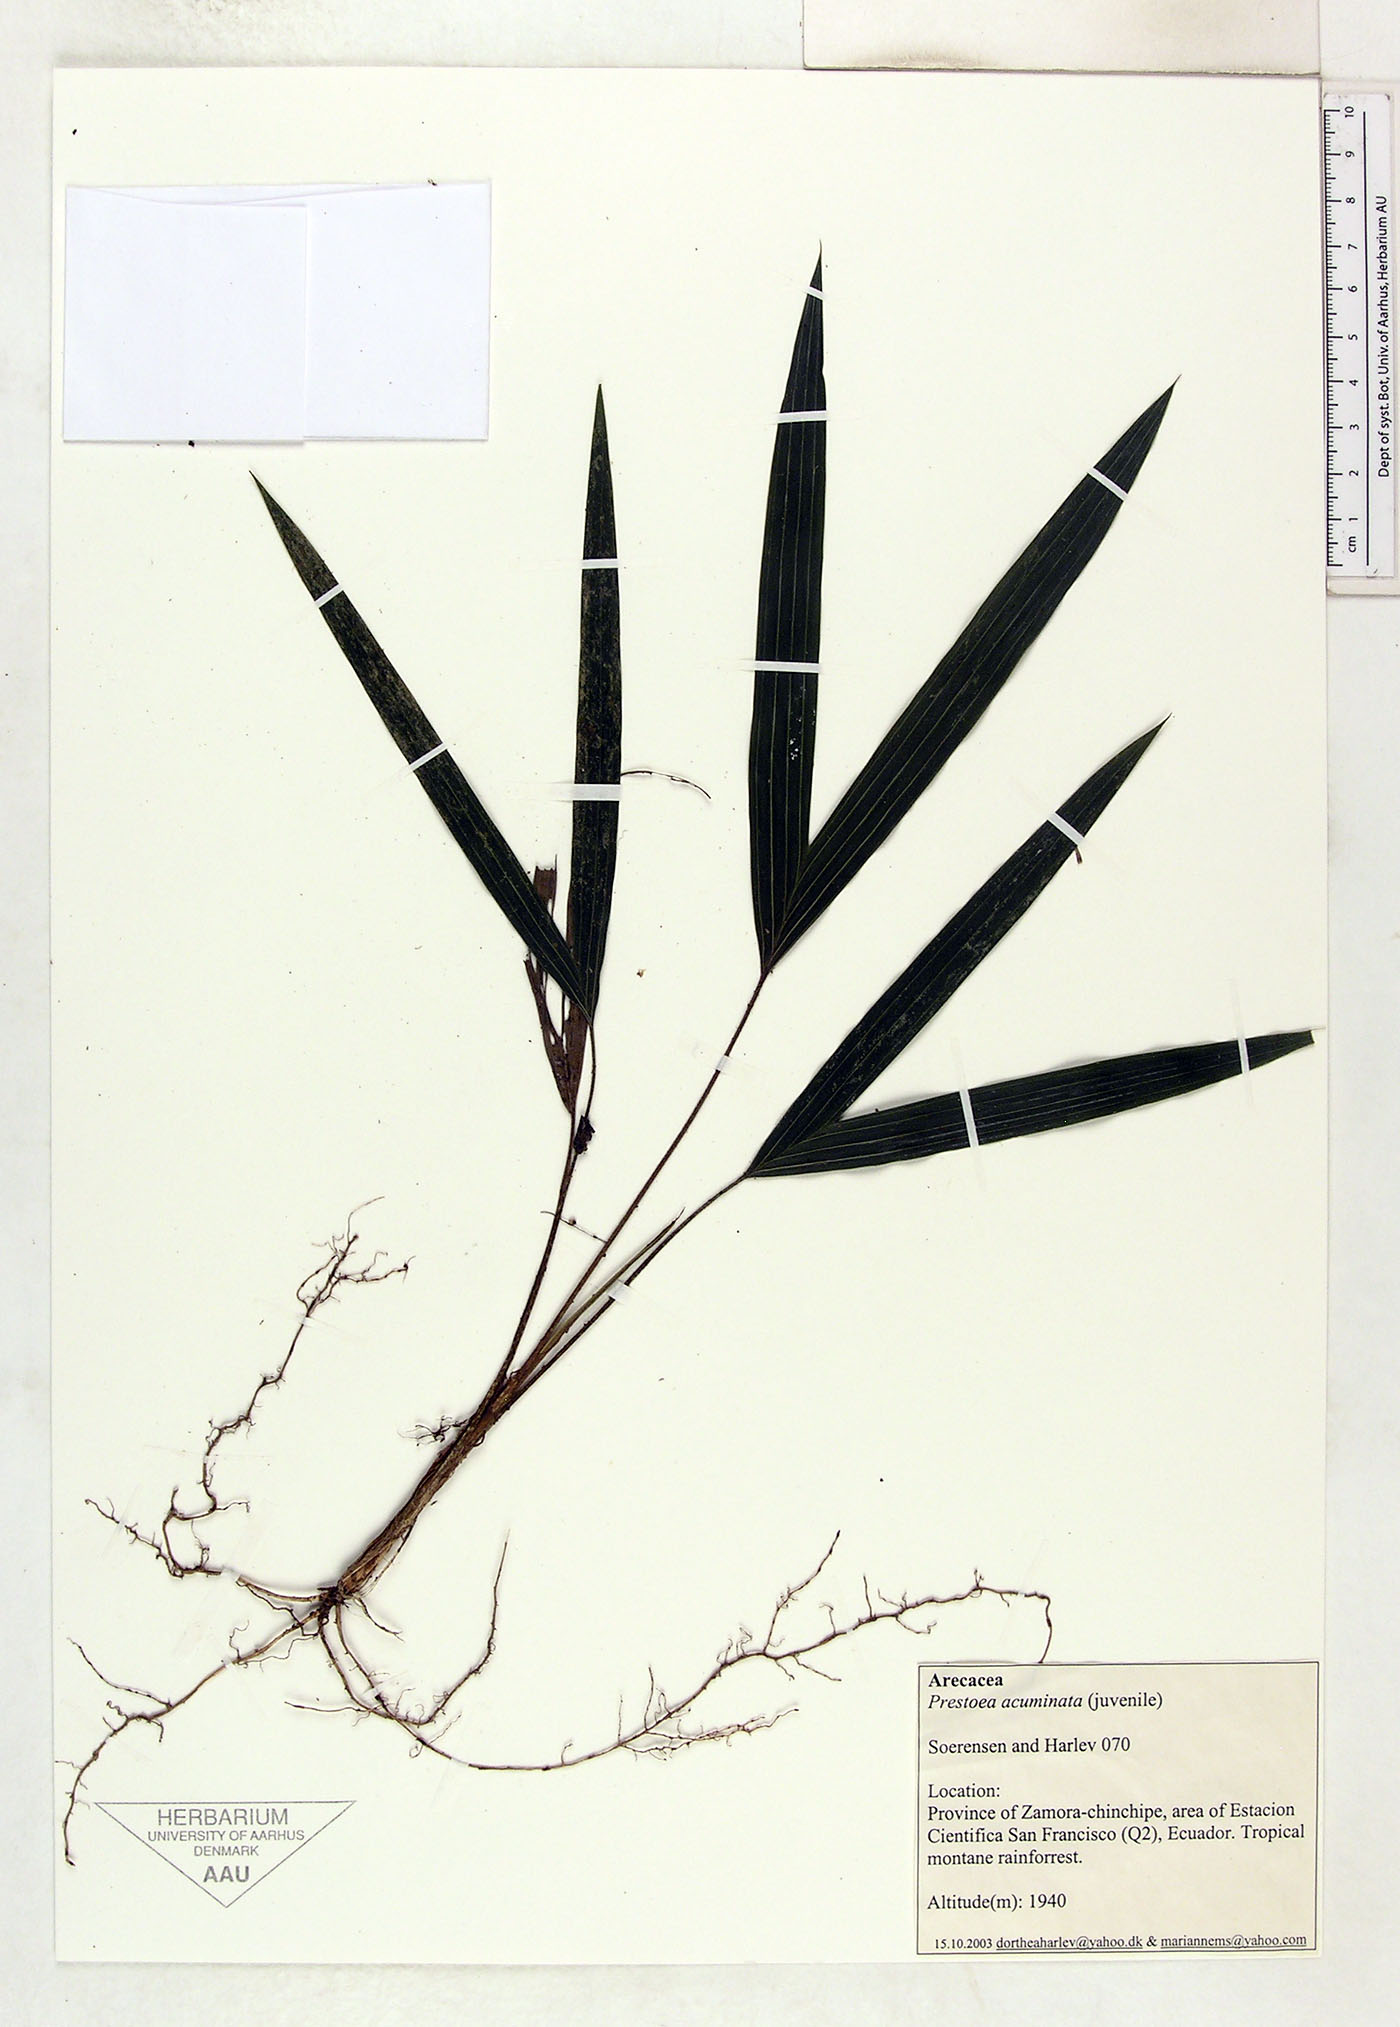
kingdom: Plantae
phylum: Tracheophyta
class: Liliopsida
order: Arecales
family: Arecaceae
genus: Prestoea
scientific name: Prestoea acuminata
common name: Sierran palm
